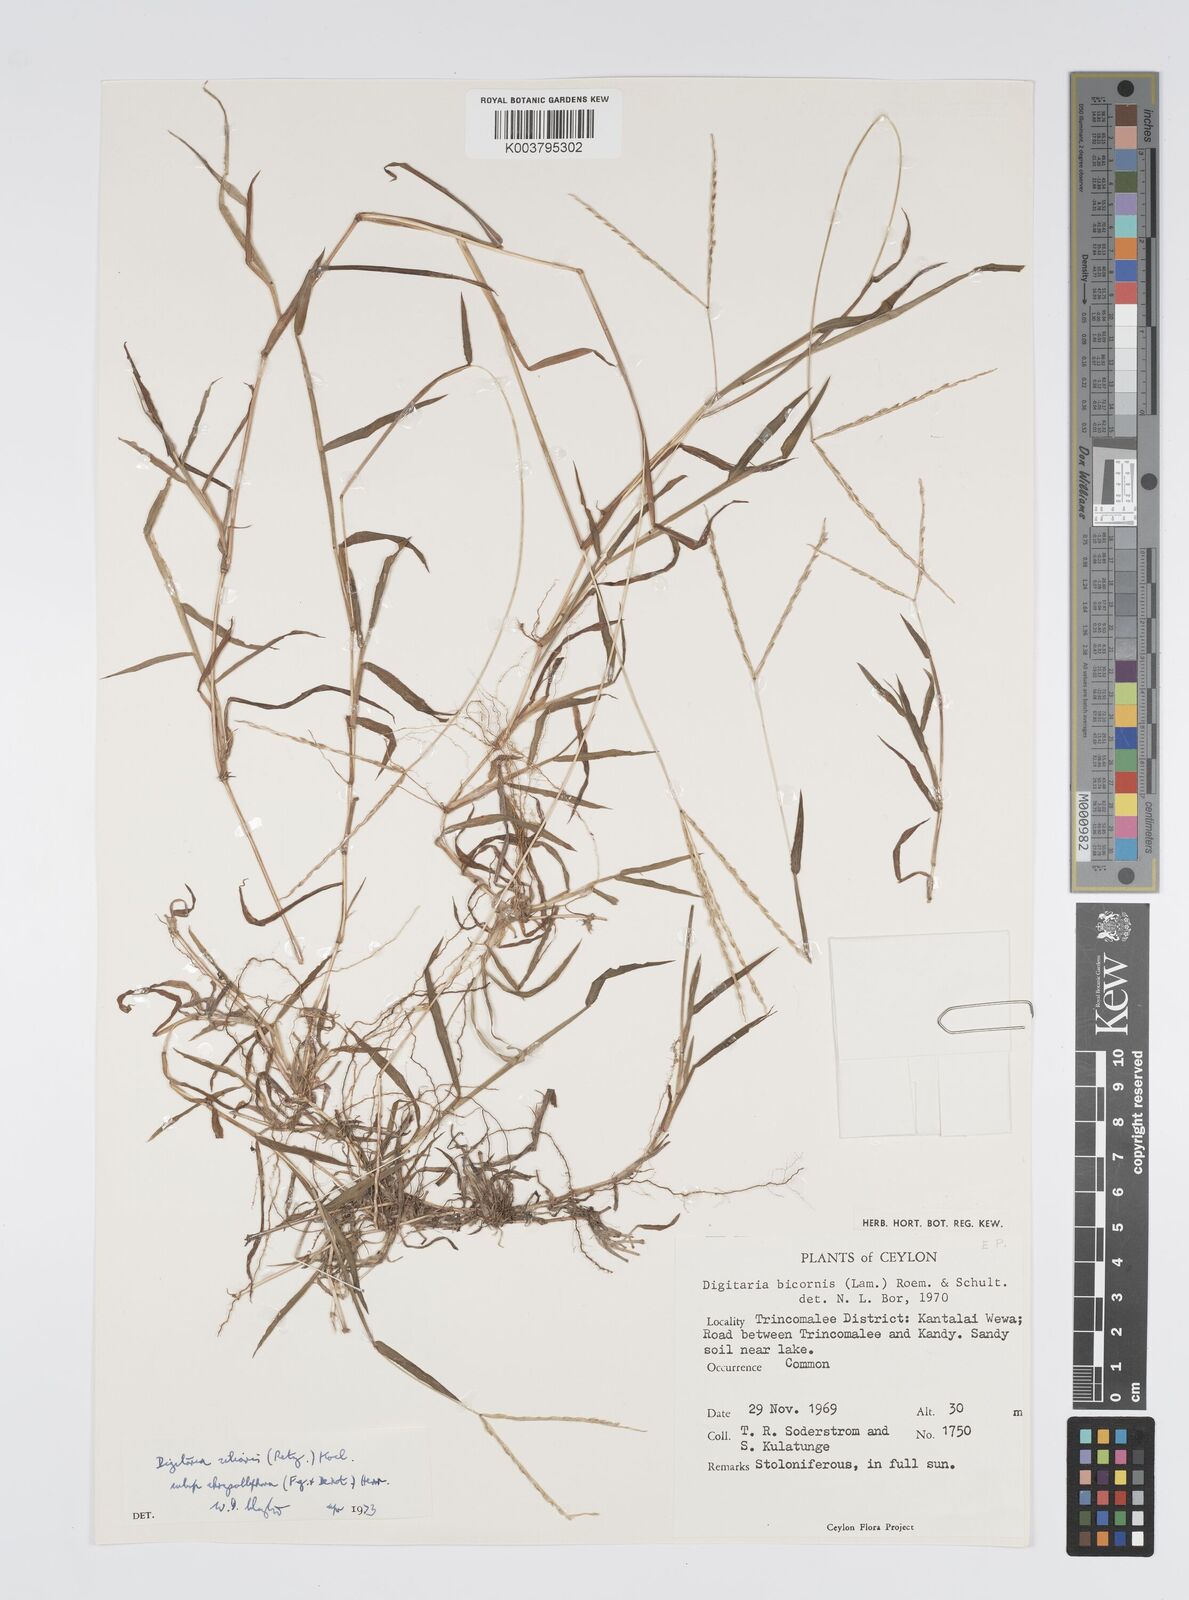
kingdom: Plantae
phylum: Tracheophyta
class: Liliopsida
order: Poales
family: Poaceae
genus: Digitaria
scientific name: Digitaria ciliaris
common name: Tropical finger-grass
